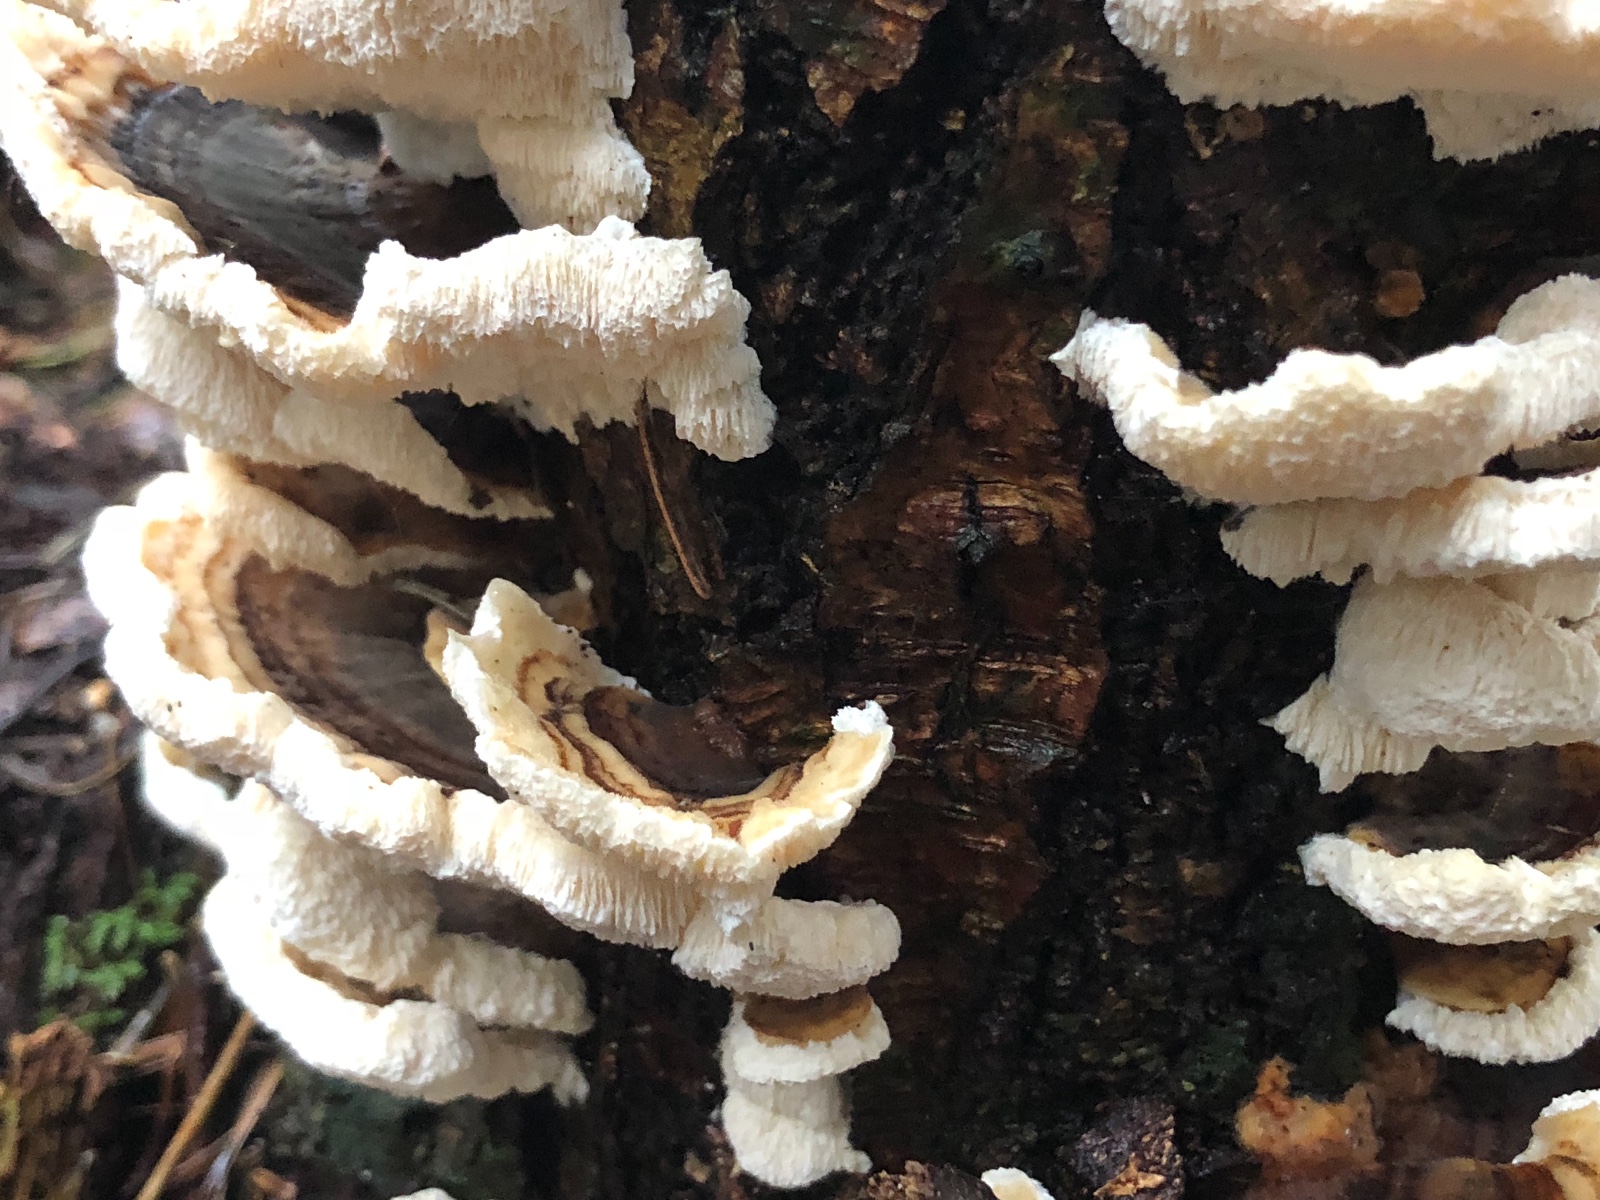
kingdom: Fungi
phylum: Basidiomycota
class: Agaricomycetes
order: Polyporales
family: Polyporaceae
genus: Trametes
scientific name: Trametes versicolor
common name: broget læderporesvamp
